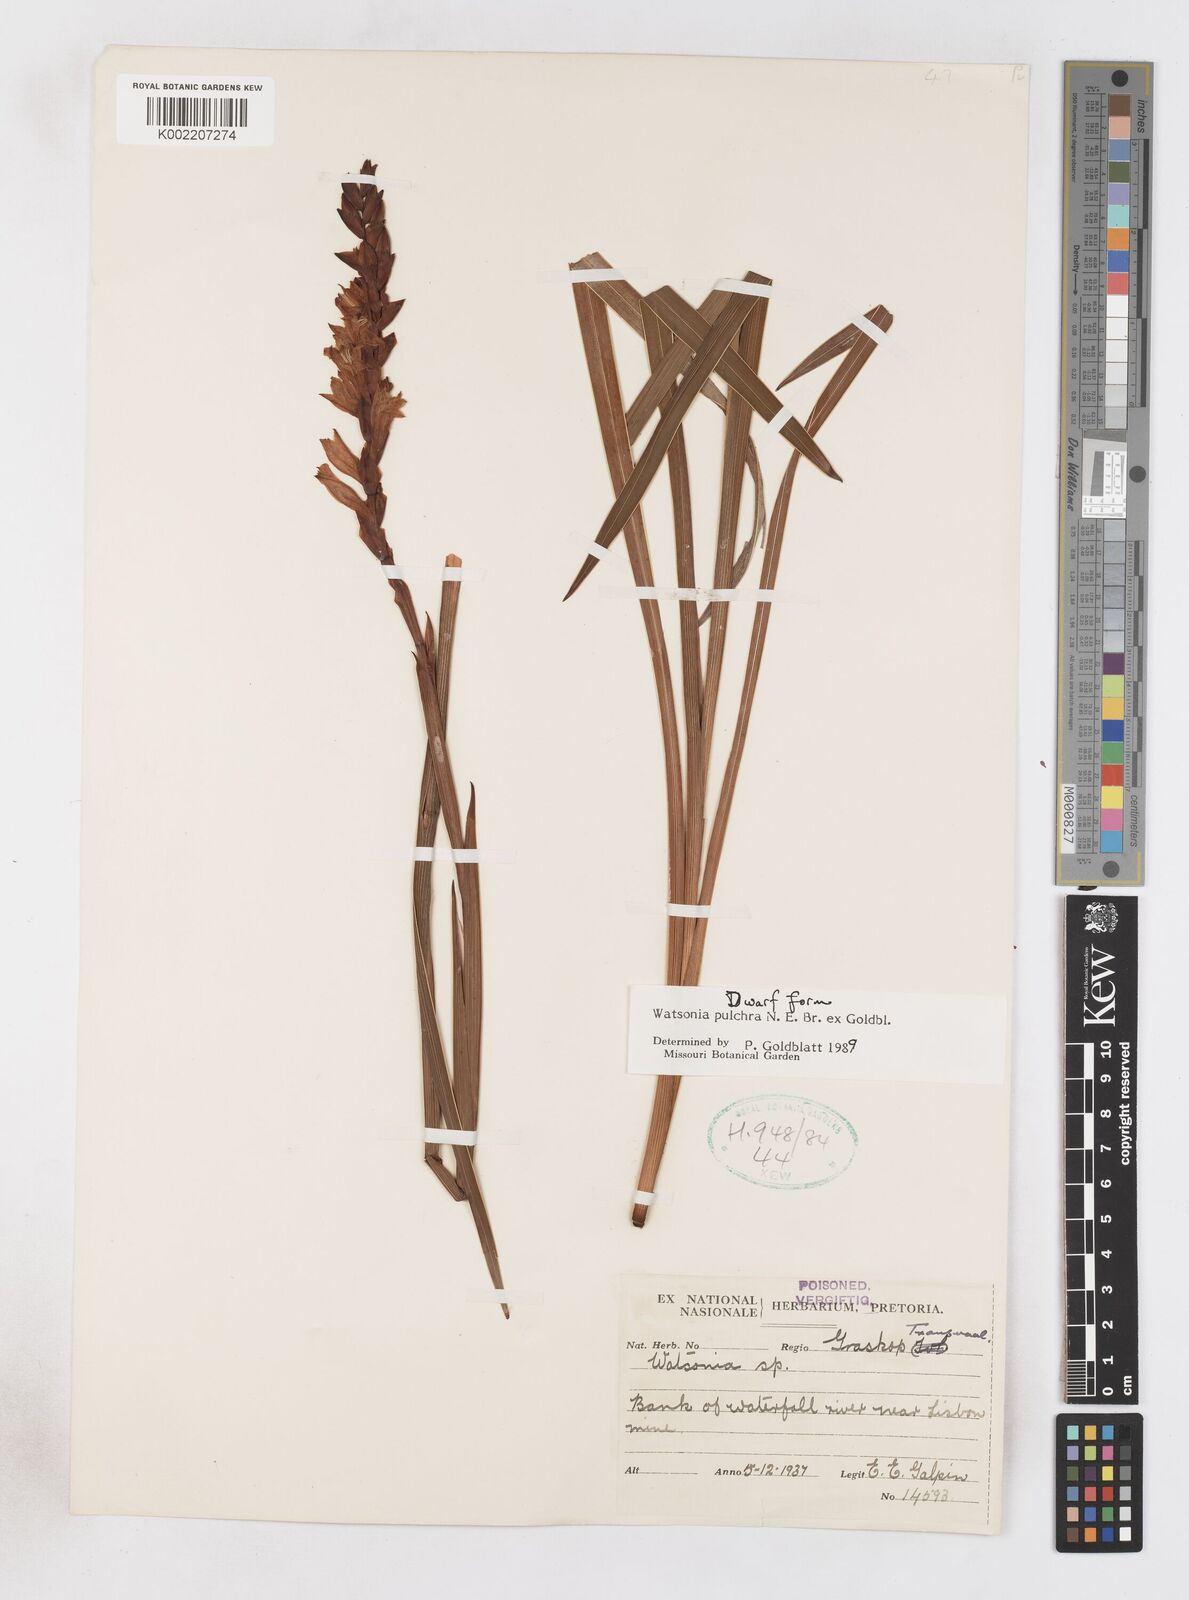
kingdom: Plantae
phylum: Tracheophyta
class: Liliopsida
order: Asparagales
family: Iridaceae
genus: Watsonia
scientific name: Watsonia pulchra
